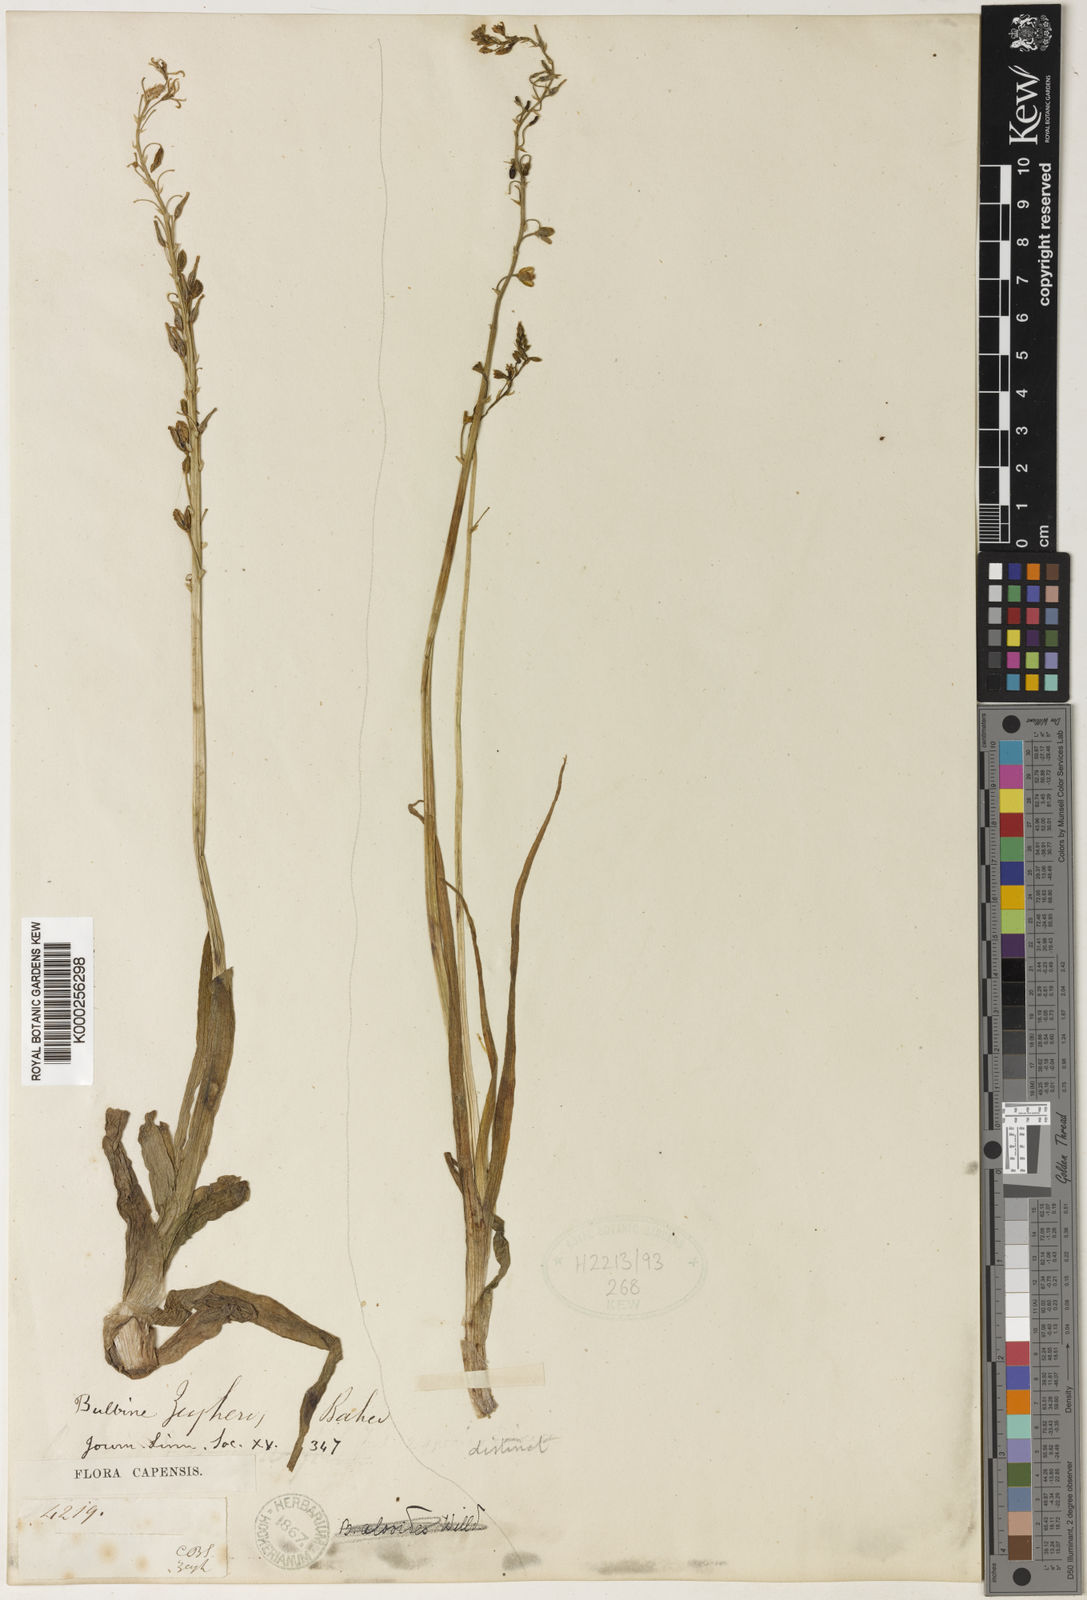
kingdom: Plantae
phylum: Tracheophyta
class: Liliopsida
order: Asparagales
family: Asphodelaceae
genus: Bulbine
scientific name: Bulbine alooides
